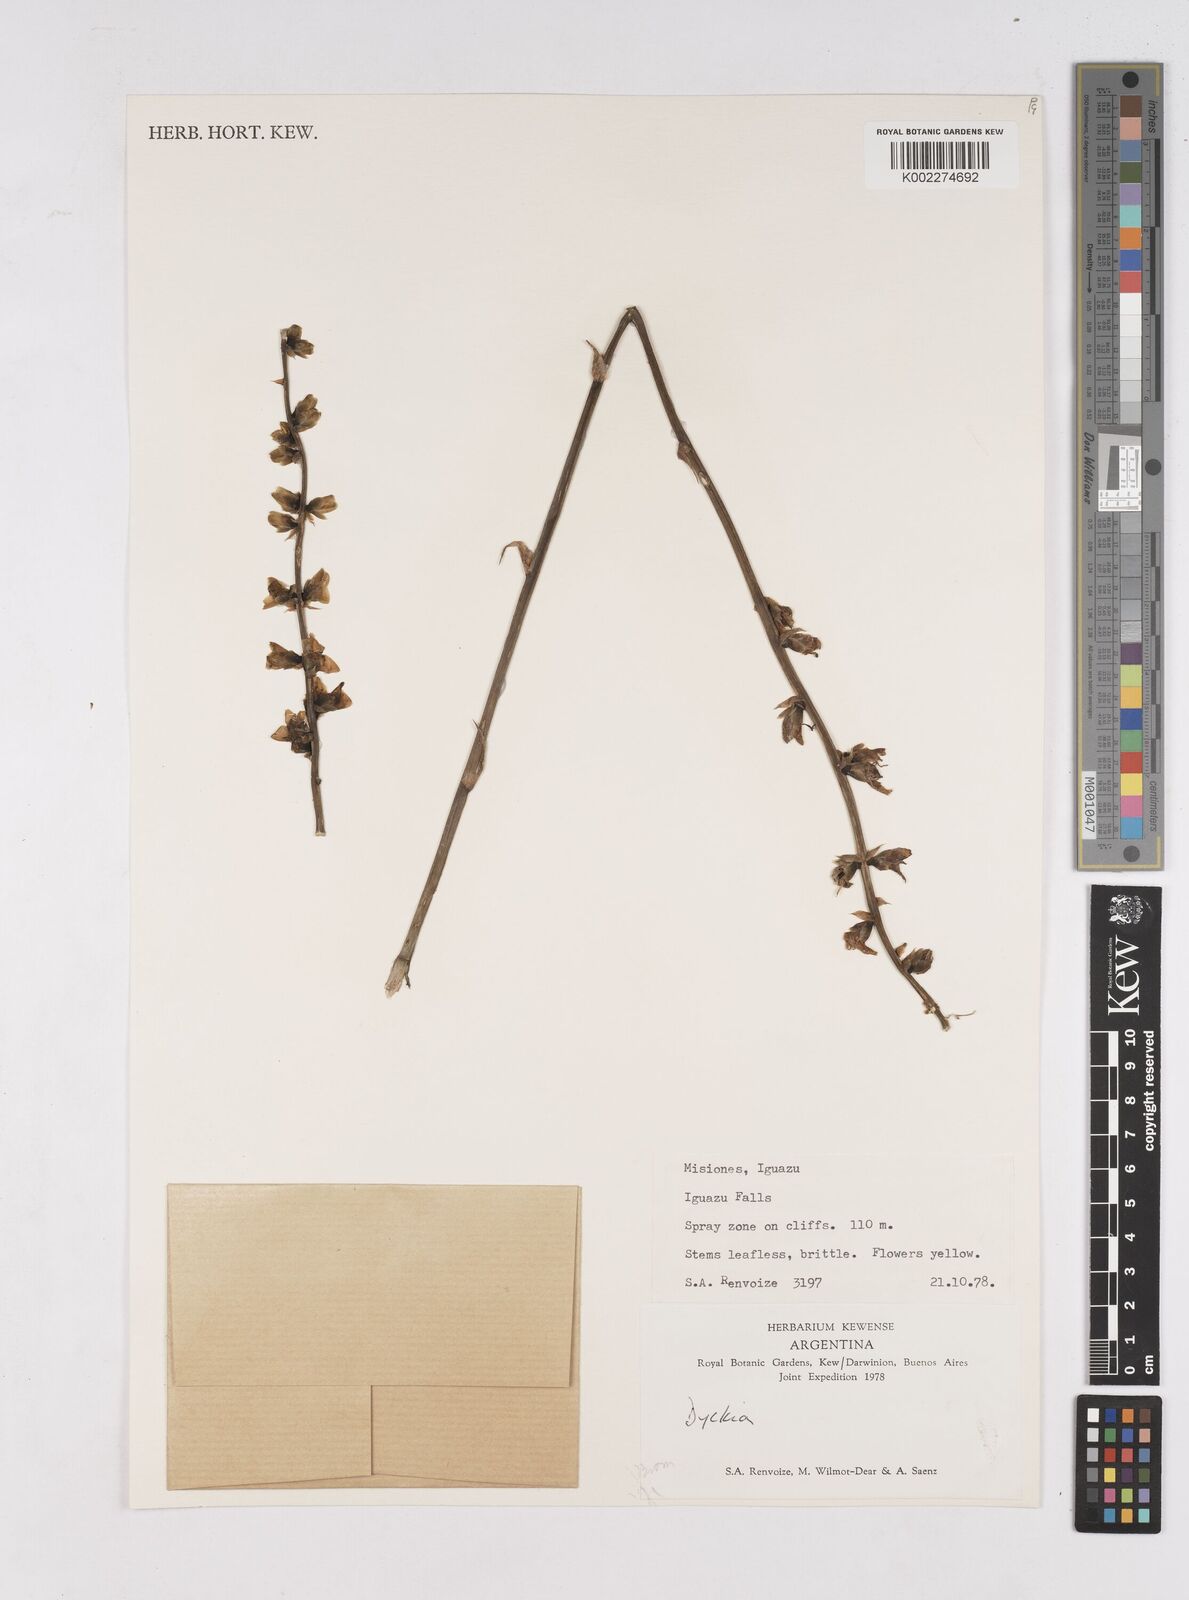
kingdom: Plantae
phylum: Tracheophyta
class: Liliopsida
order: Poales
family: Bromeliaceae
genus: Dyckia
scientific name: Dyckia
